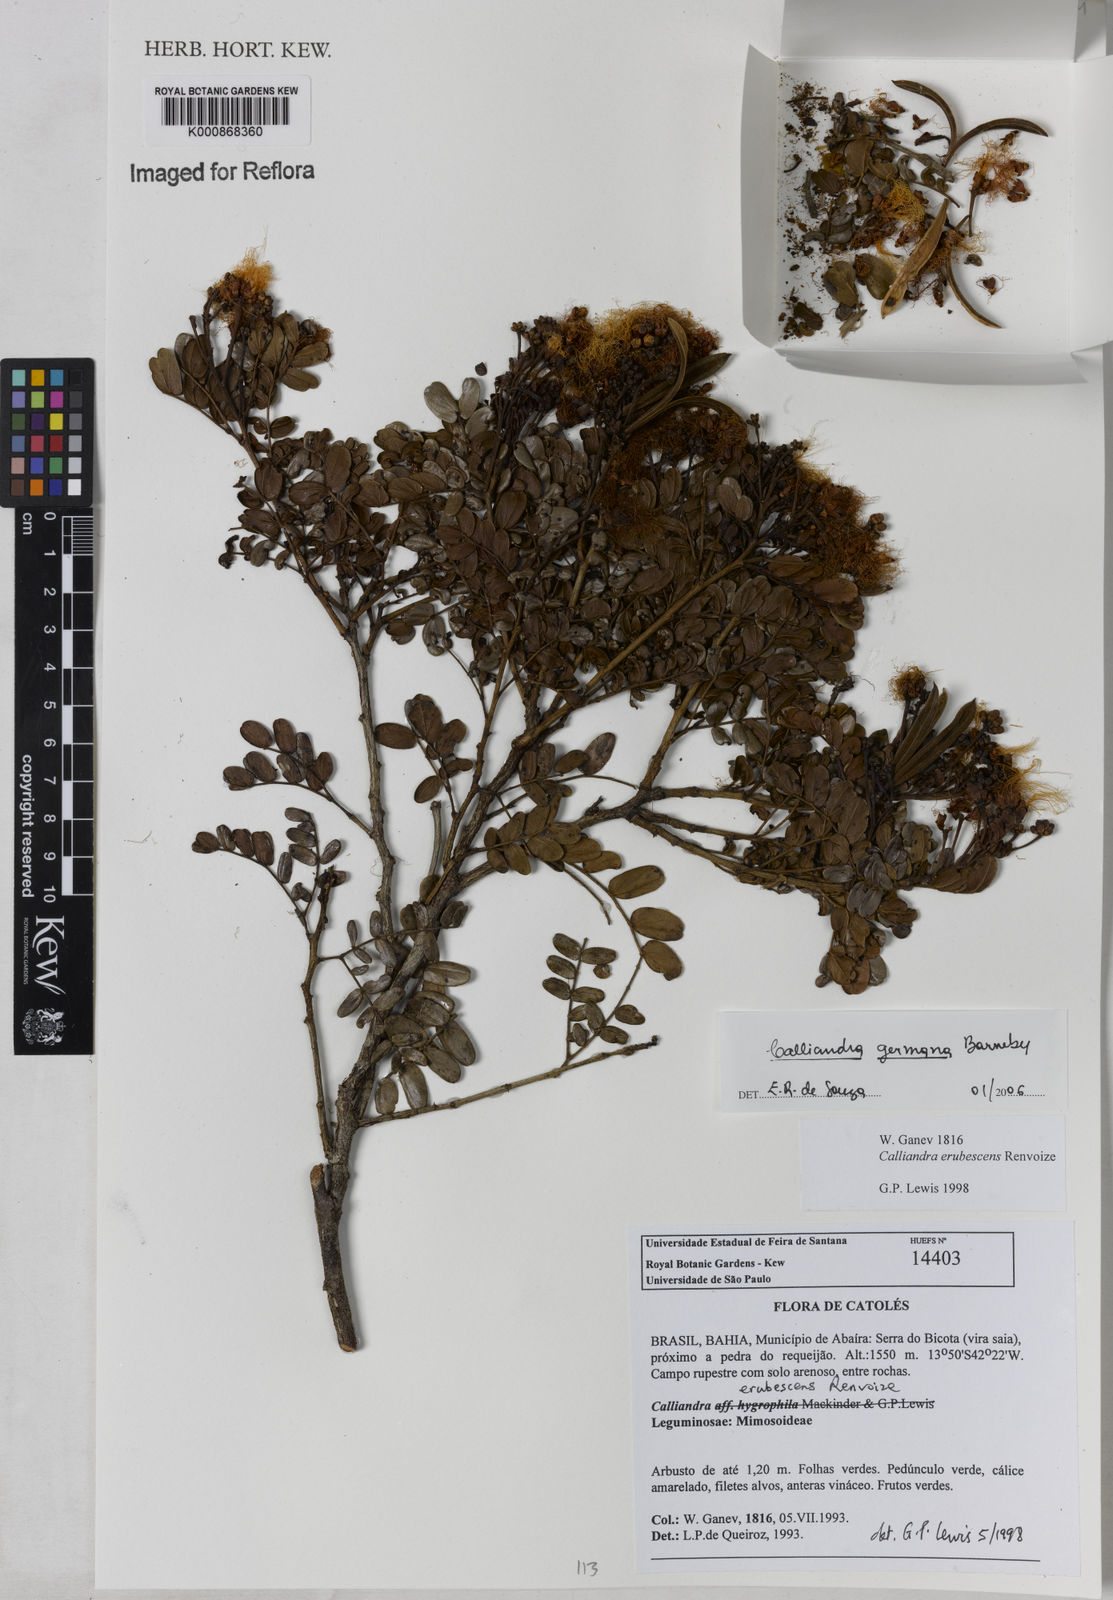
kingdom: Plantae
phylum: Tracheophyta
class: Magnoliopsida
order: Fabales
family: Fabaceae
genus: Calliandra
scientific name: Calliandra germana
